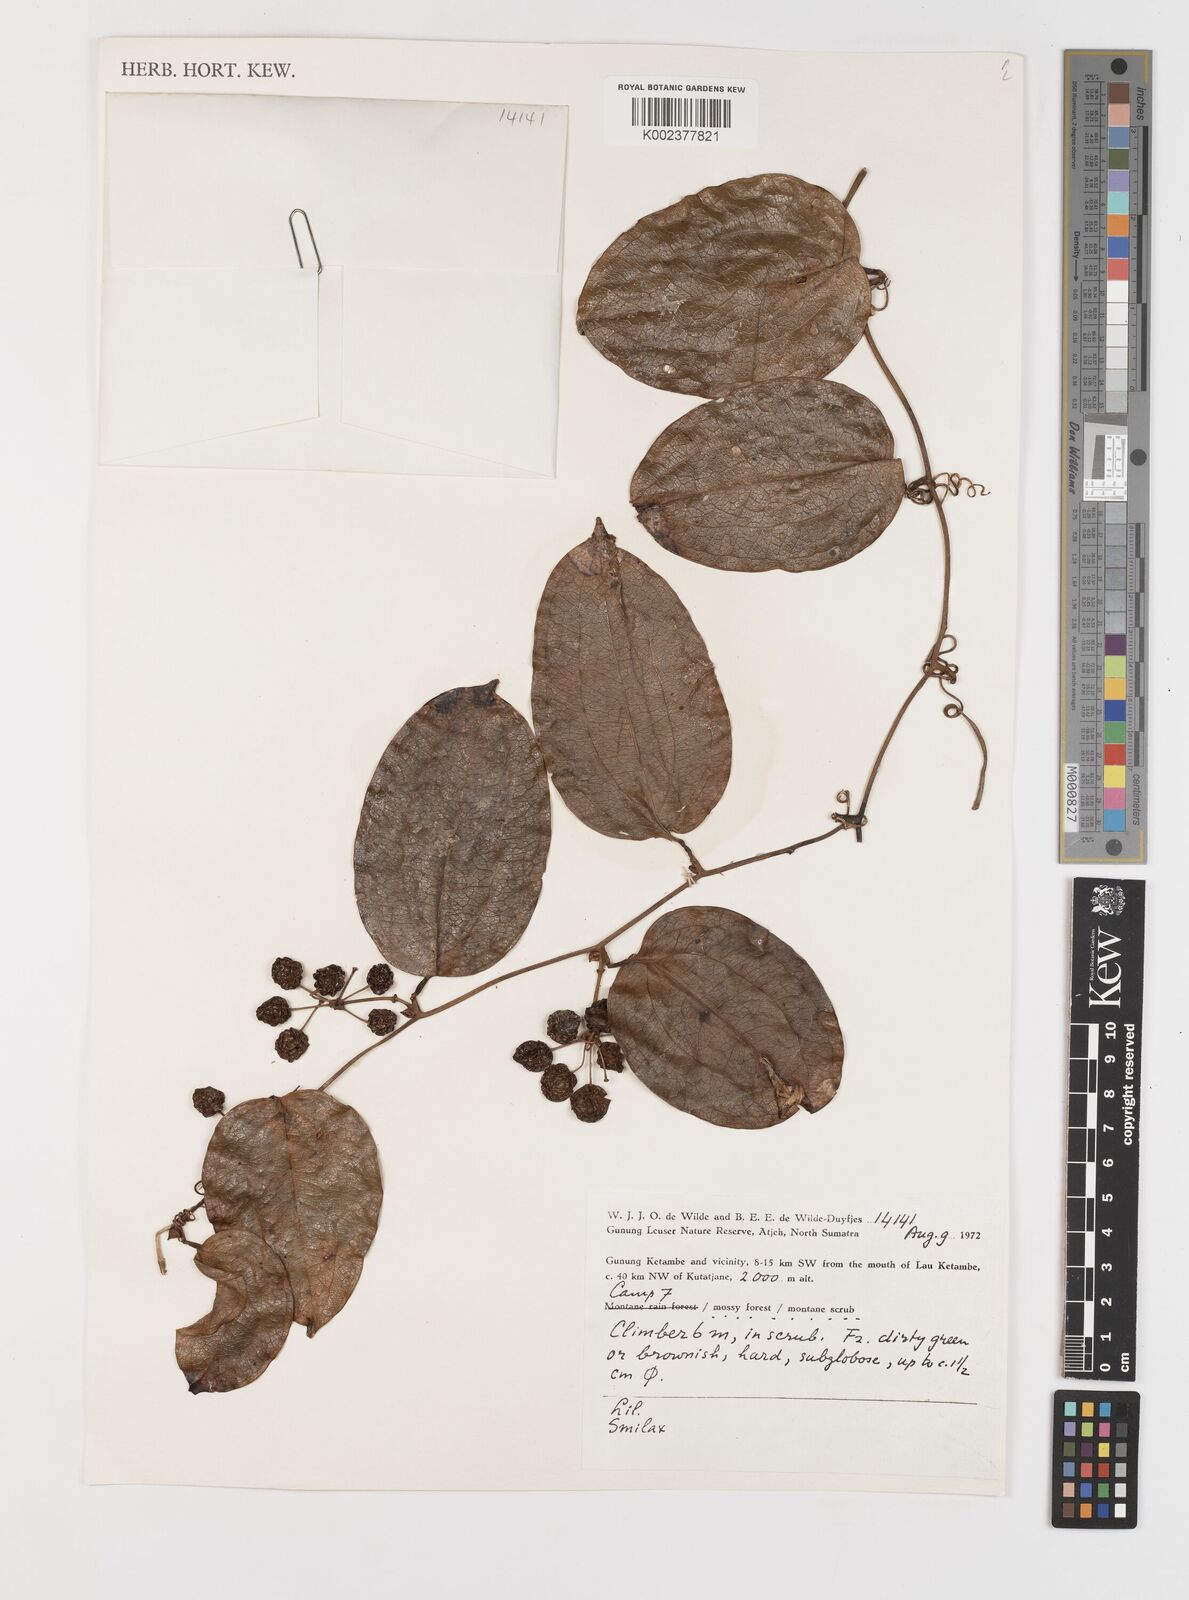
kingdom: Plantae
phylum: Tracheophyta
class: Liliopsida
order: Liliales
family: Smilacaceae
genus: Smilax
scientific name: Smilax
